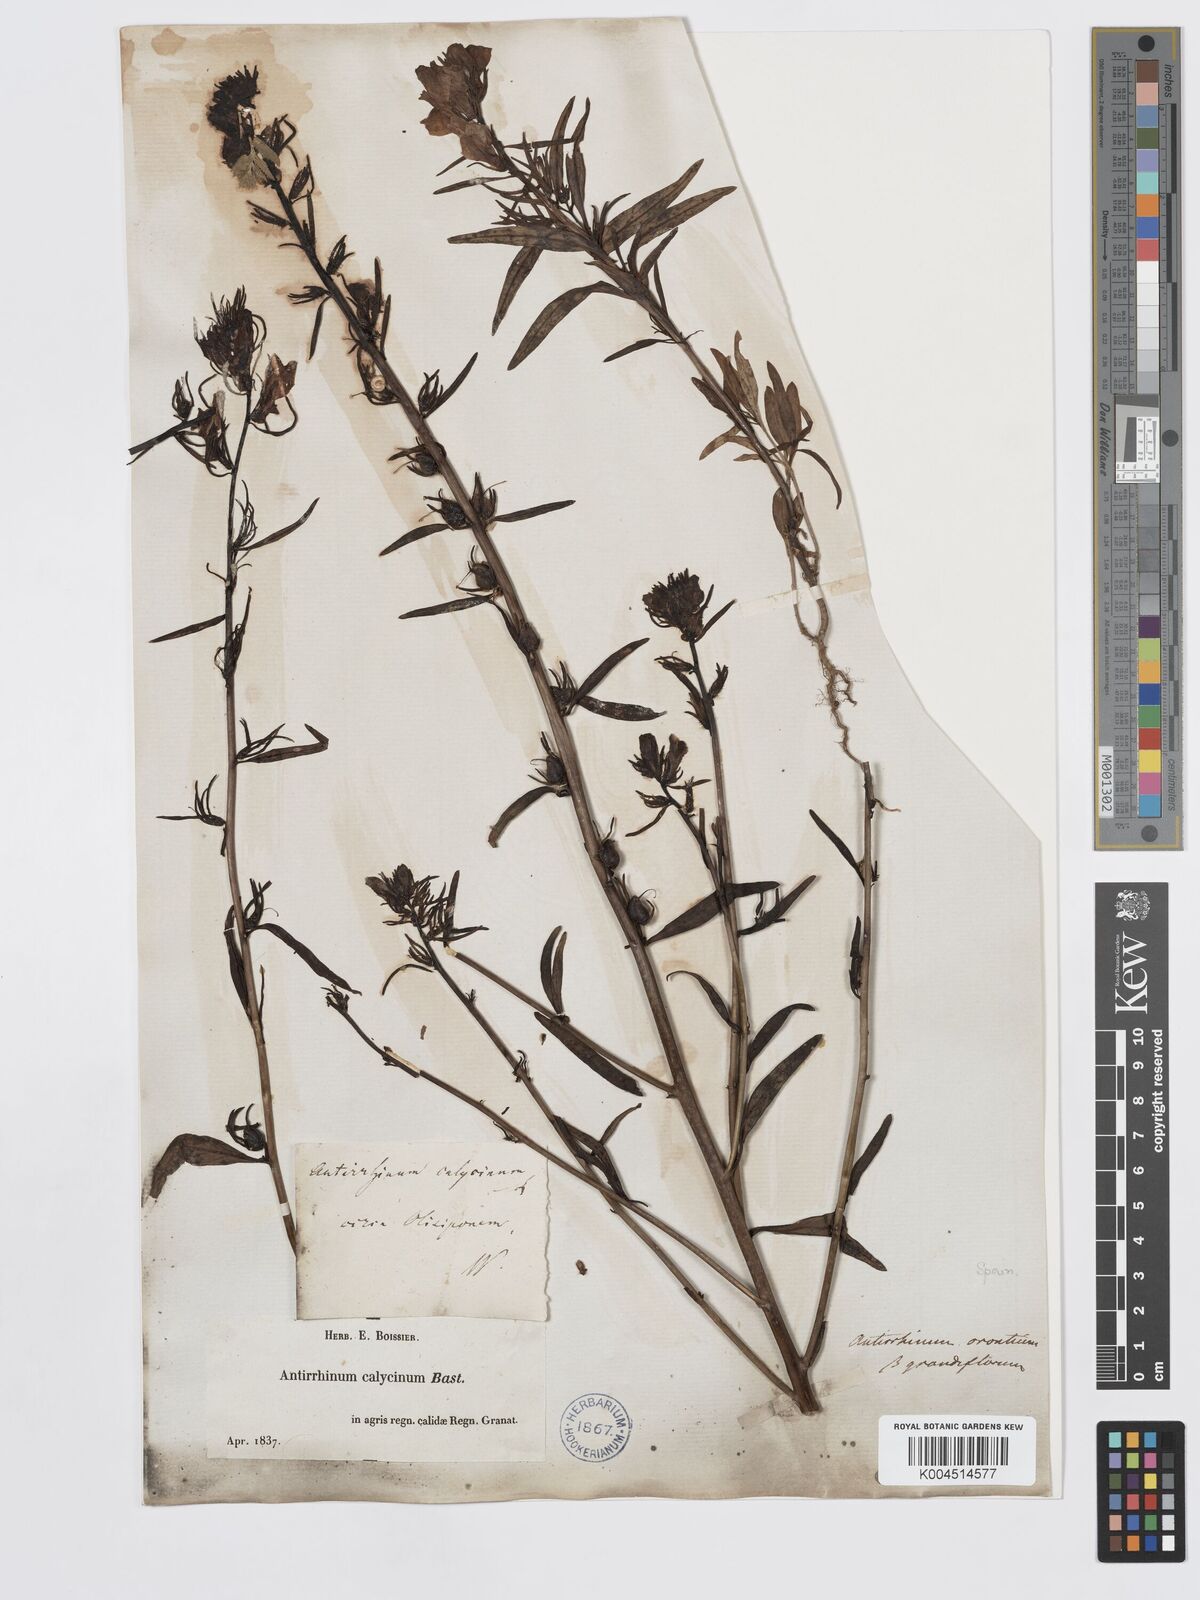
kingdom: Plantae
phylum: Tracheophyta
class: Magnoliopsida
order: Lamiales
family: Plantaginaceae
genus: Misopates
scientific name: Misopates calycinum
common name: Pale weasel's-snout
